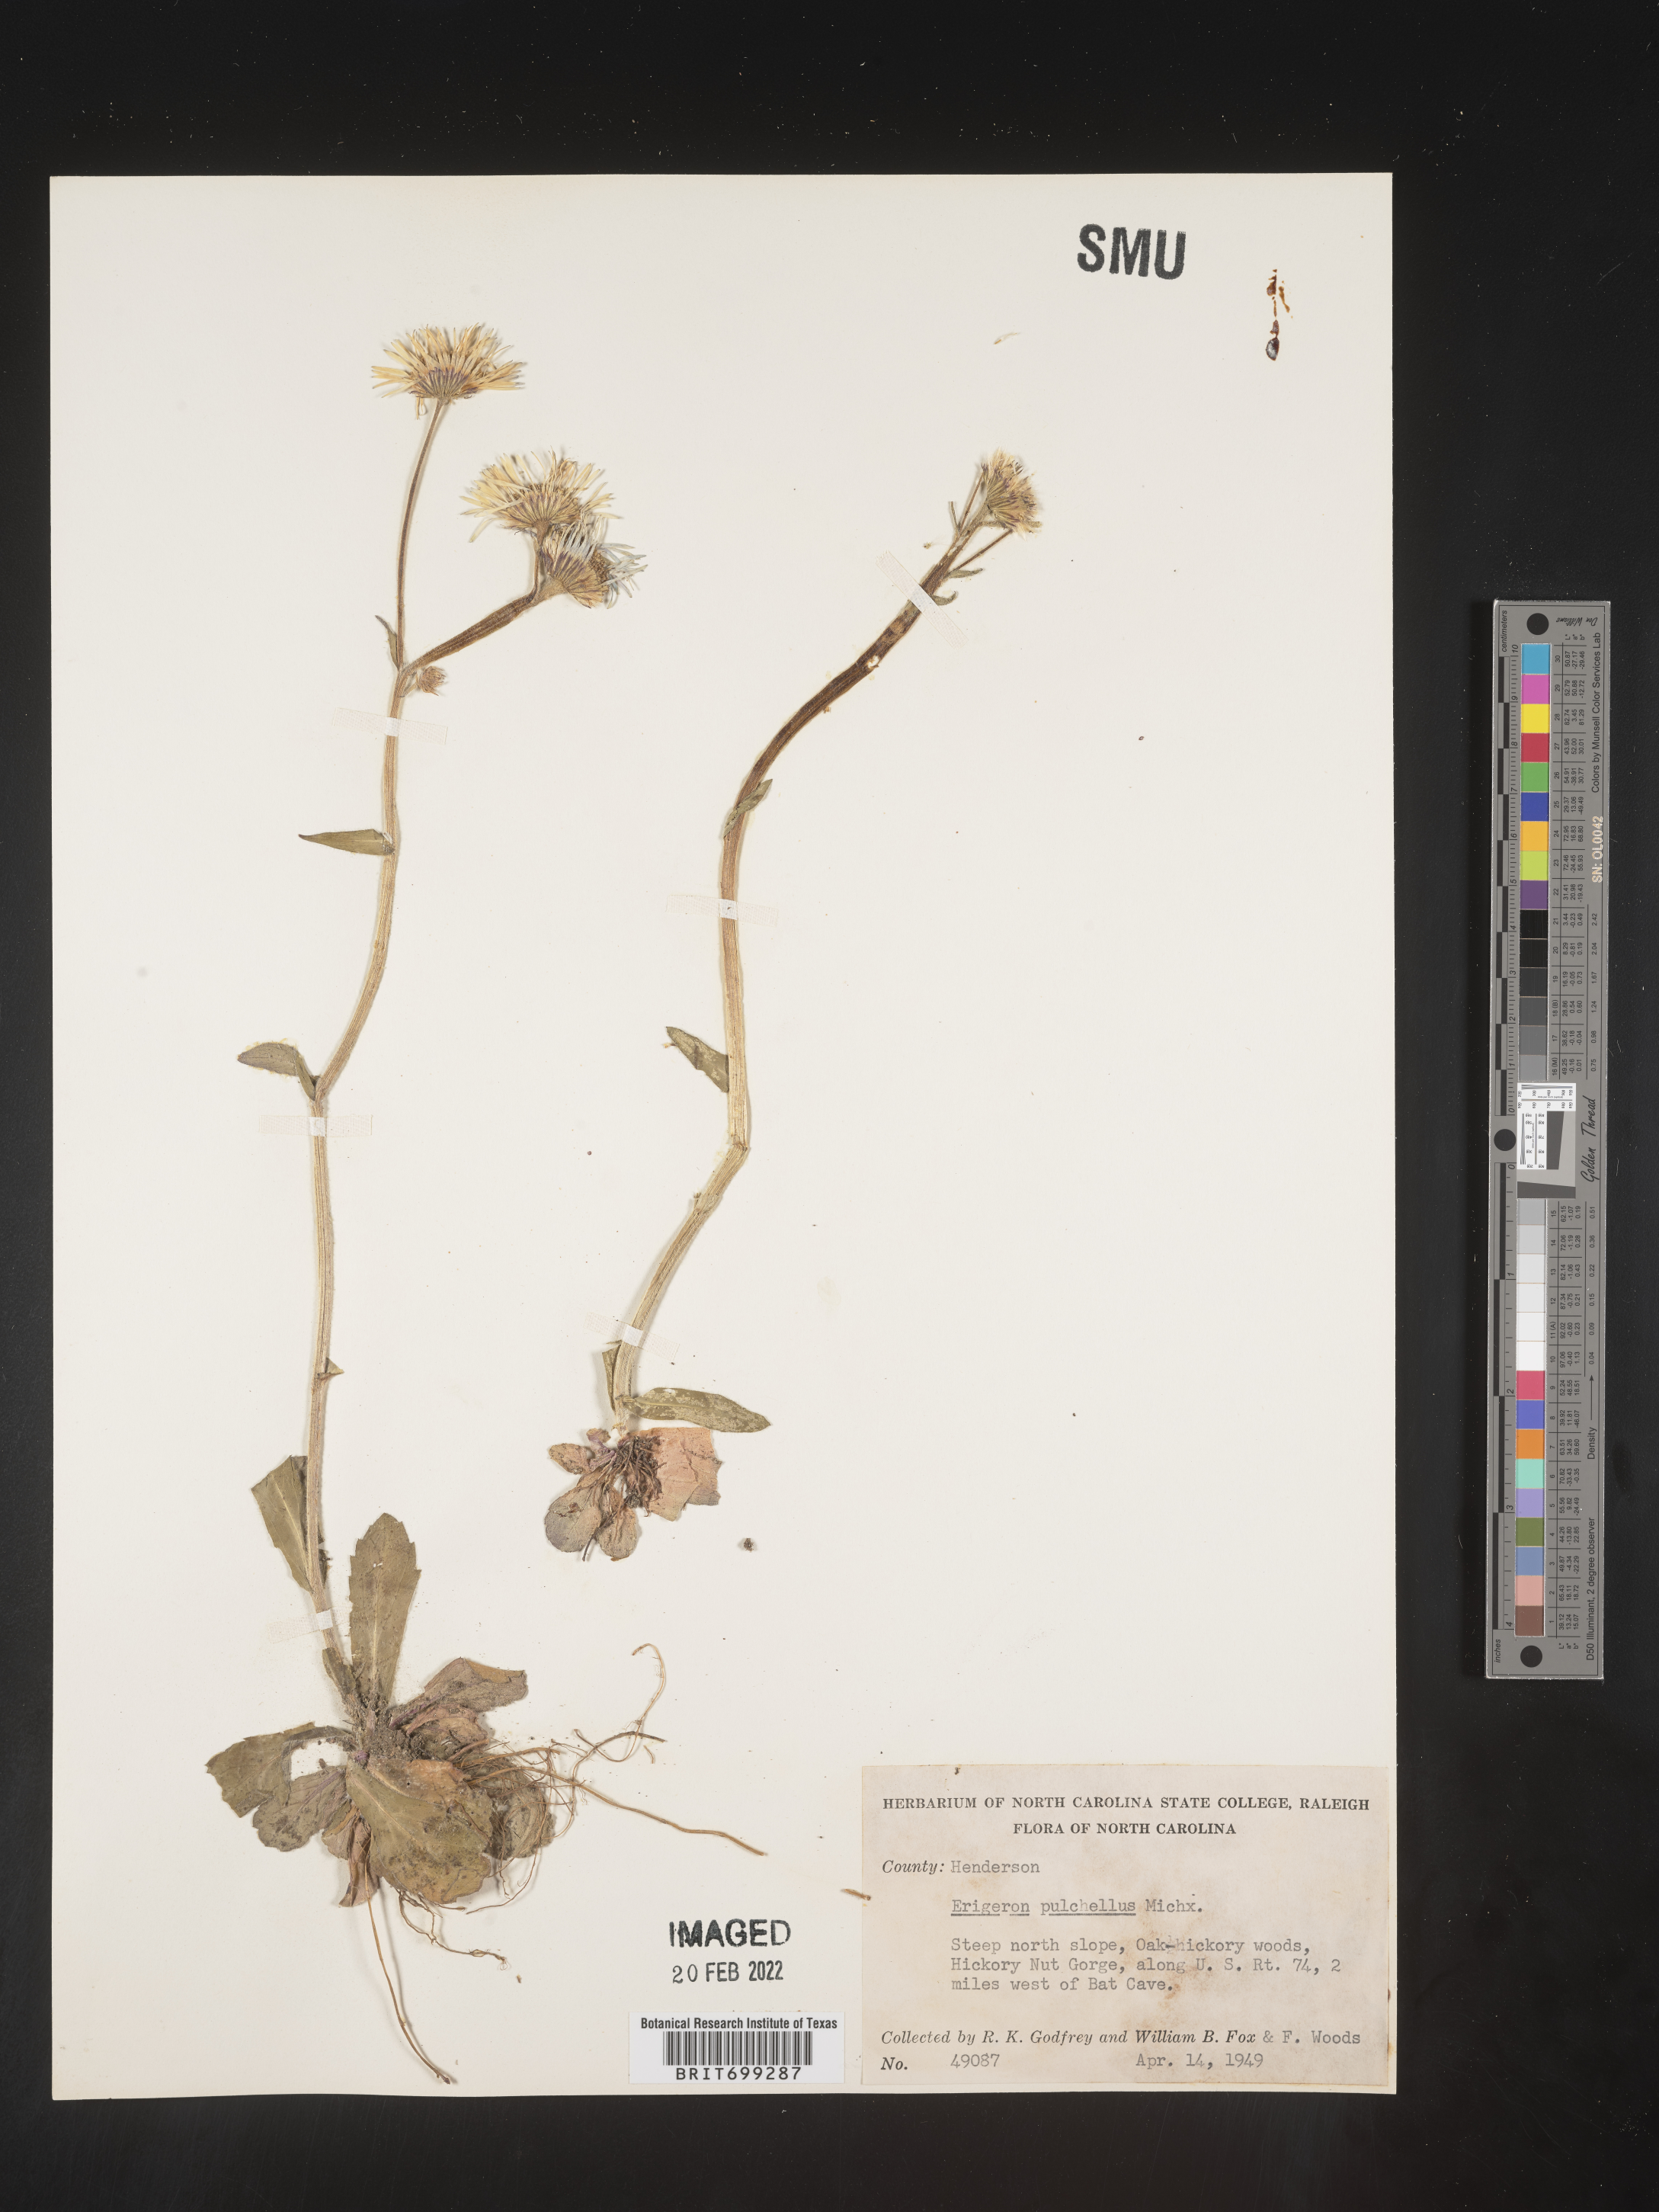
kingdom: Plantae
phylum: Tracheophyta
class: Magnoliopsida
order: Asterales
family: Asteraceae
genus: Erigeron
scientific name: Erigeron pulchellus
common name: Hairy fleabane
